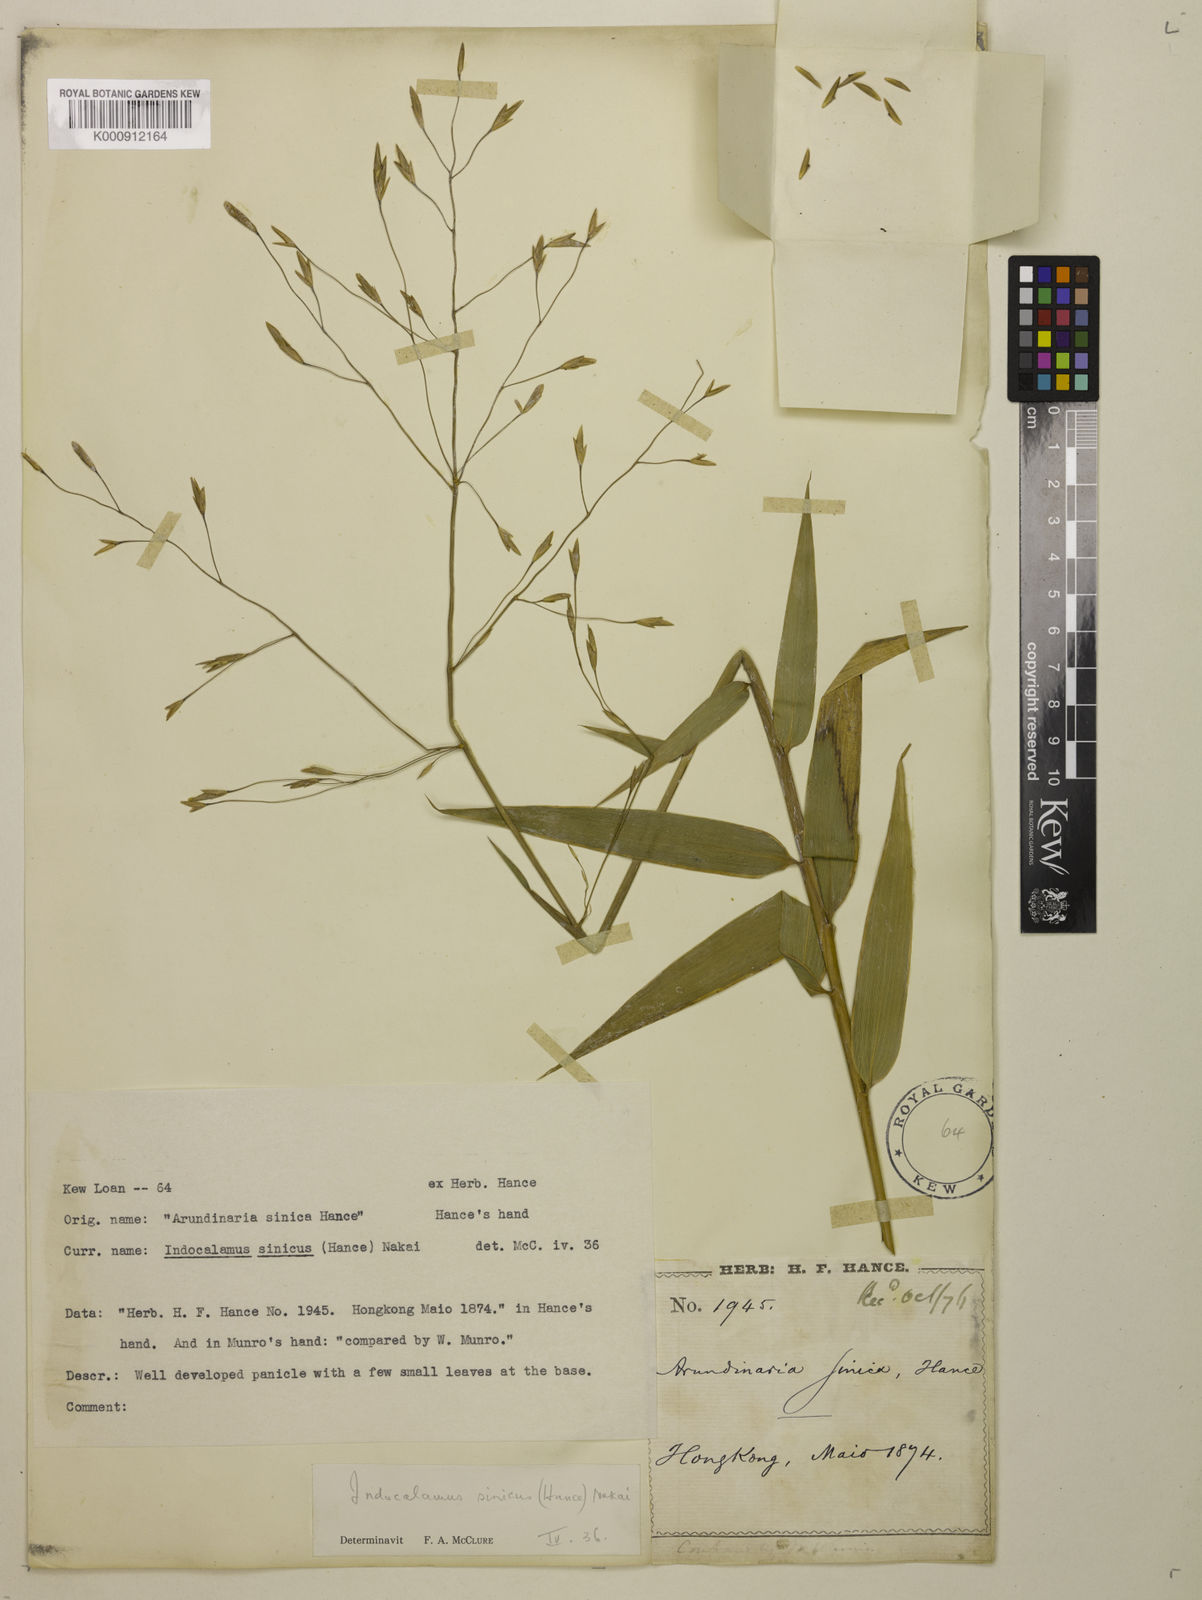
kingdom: Plantae
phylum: Tracheophyta
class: Liliopsida
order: Poales
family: Poaceae
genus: Indocalamus
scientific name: Indocalamus sinicus
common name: Chinese cane
